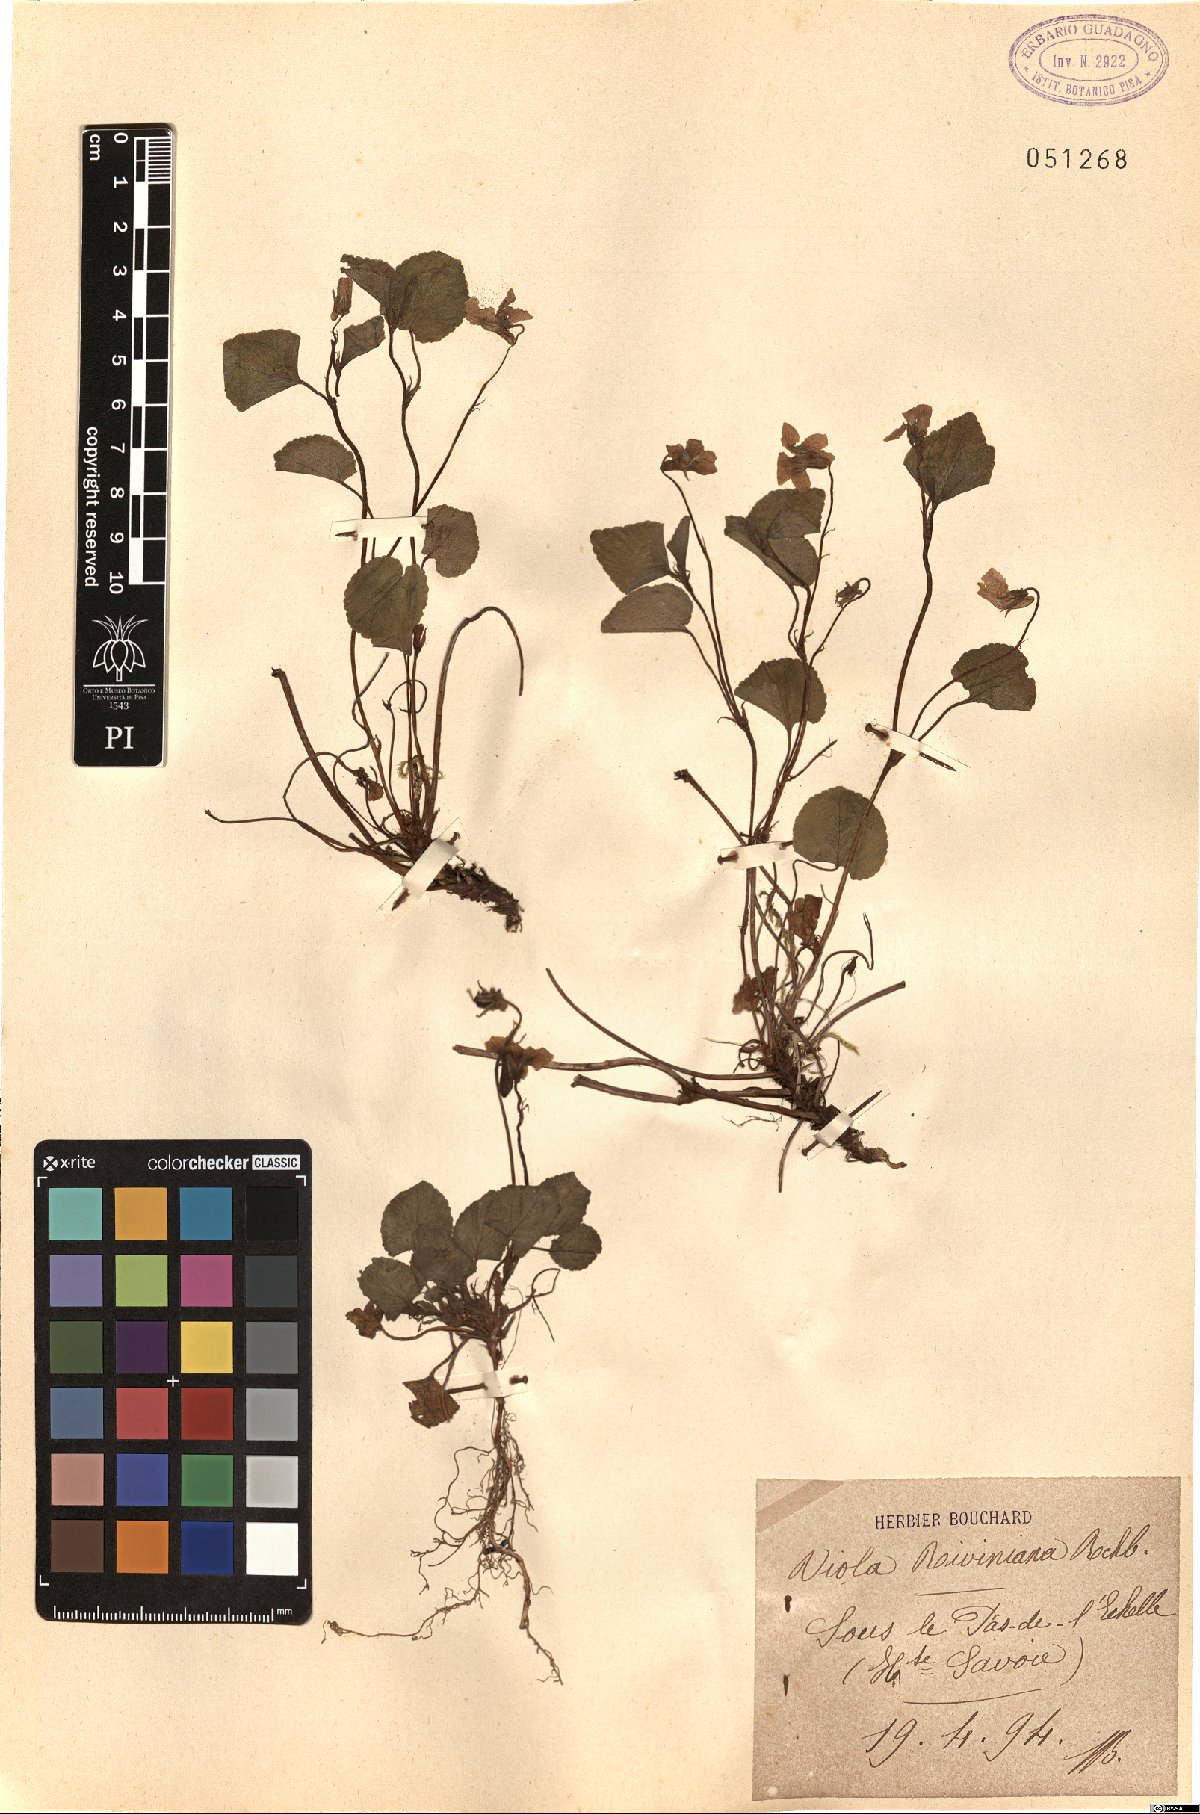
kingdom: Plantae
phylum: Tracheophyta
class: Magnoliopsida
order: Malpighiales
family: Violaceae
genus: Viola
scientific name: Viola riviniana
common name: Common dog-violet
